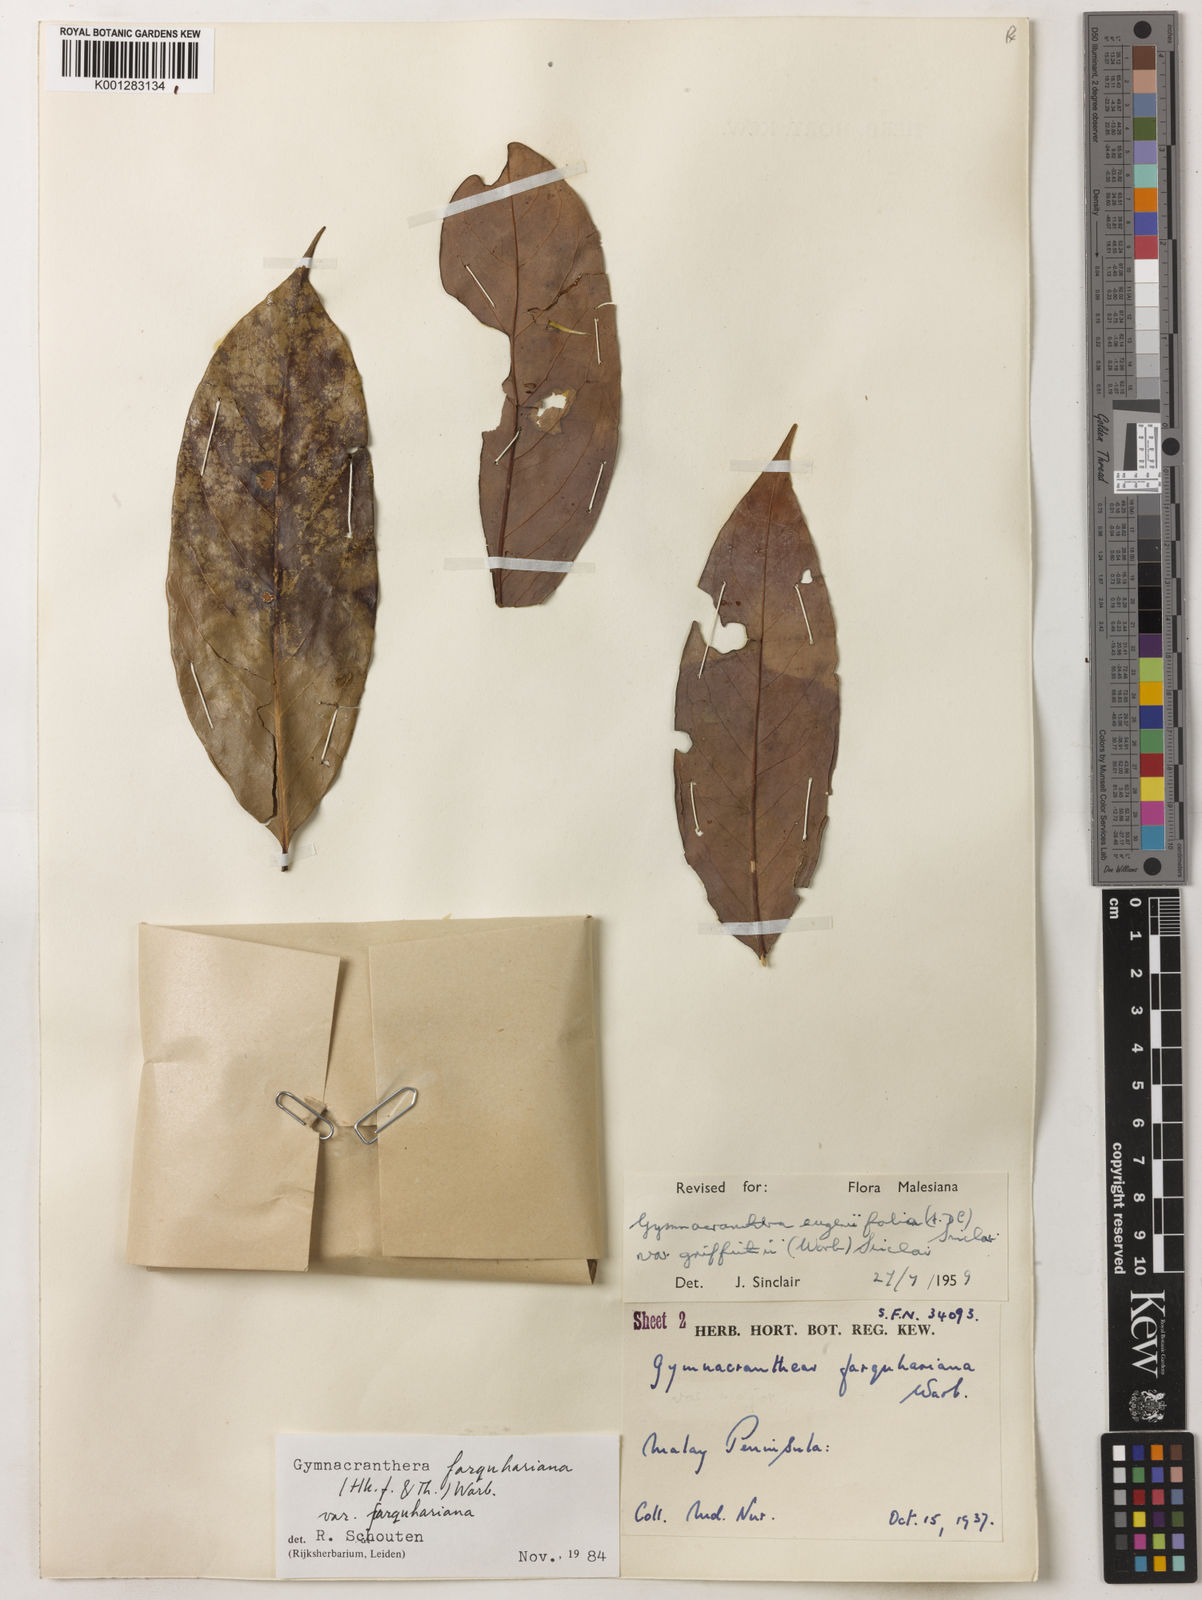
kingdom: Plantae
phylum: Tracheophyta
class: Magnoliopsida
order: Magnoliales
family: Myristicaceae
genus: Gymnacranthera
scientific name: Gymnacranthera farquhariana
